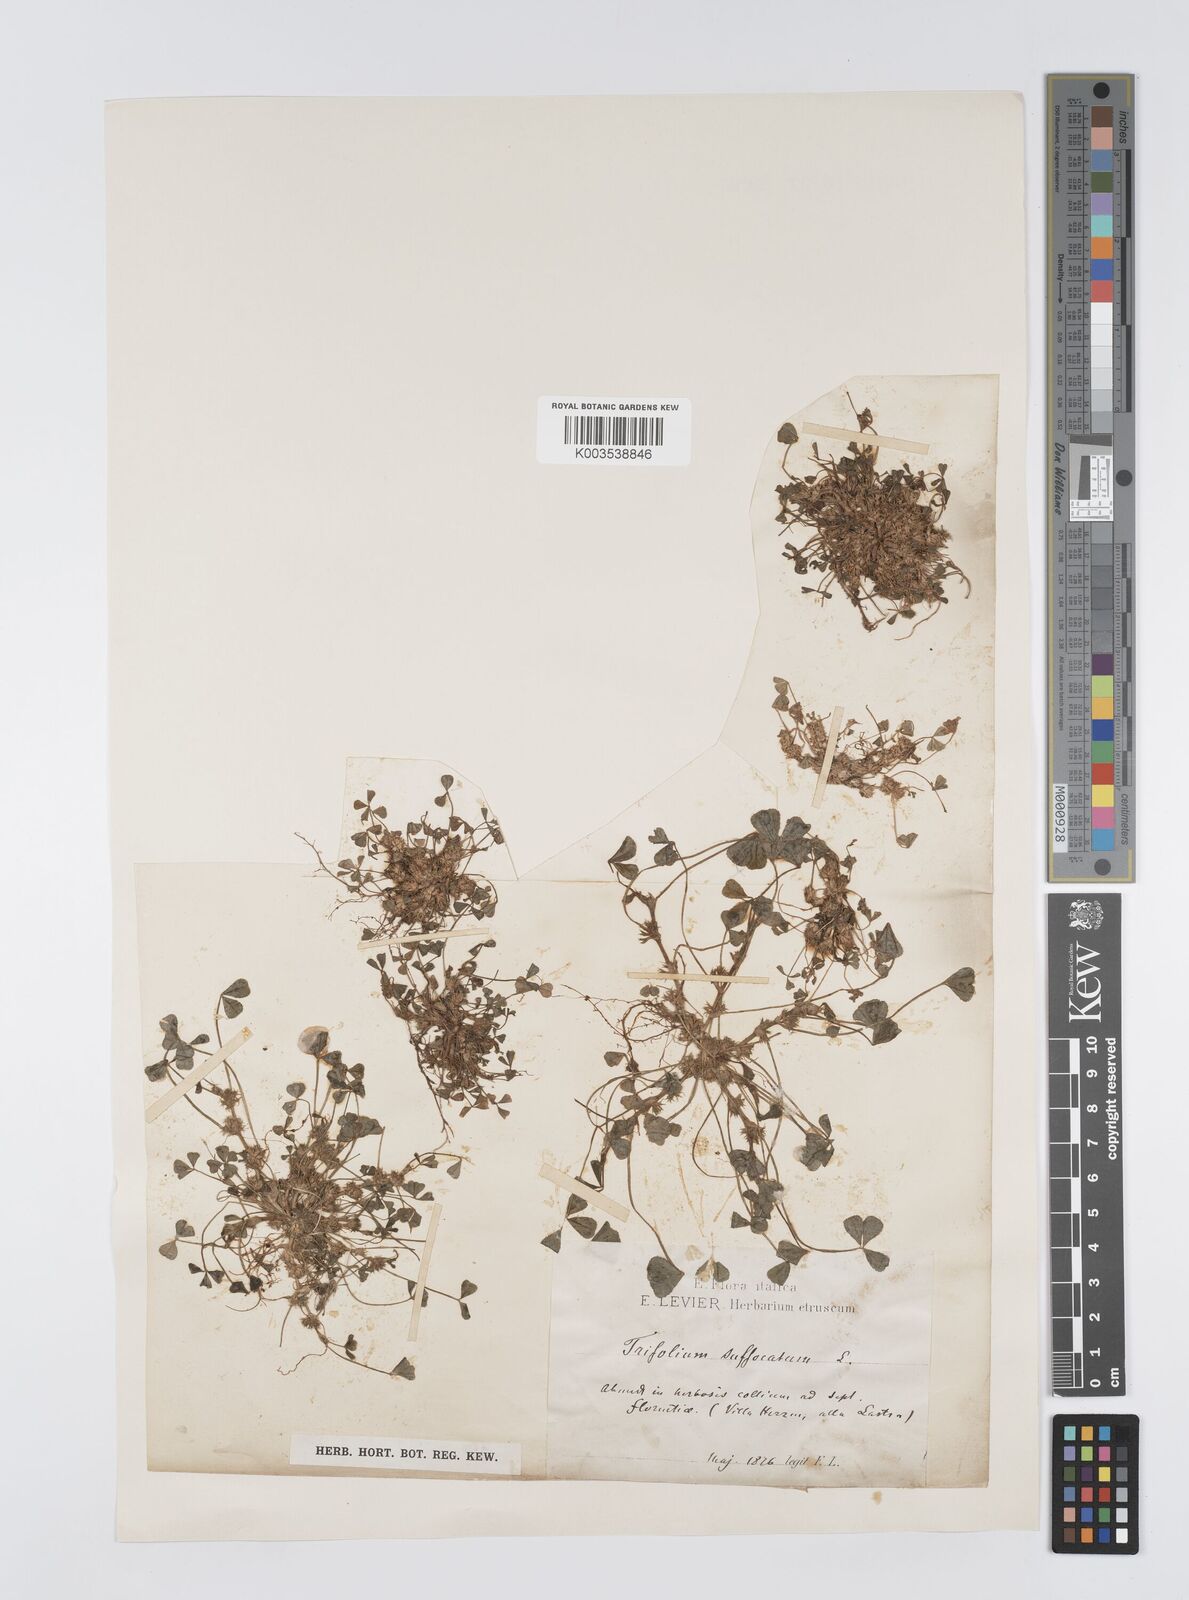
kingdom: Plantae
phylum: Tracheophyta
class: Magnoliopsida
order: Fabales
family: Fabaceae
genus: Trifolium
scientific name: Trifolium suffocatum
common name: Suffocated clover
